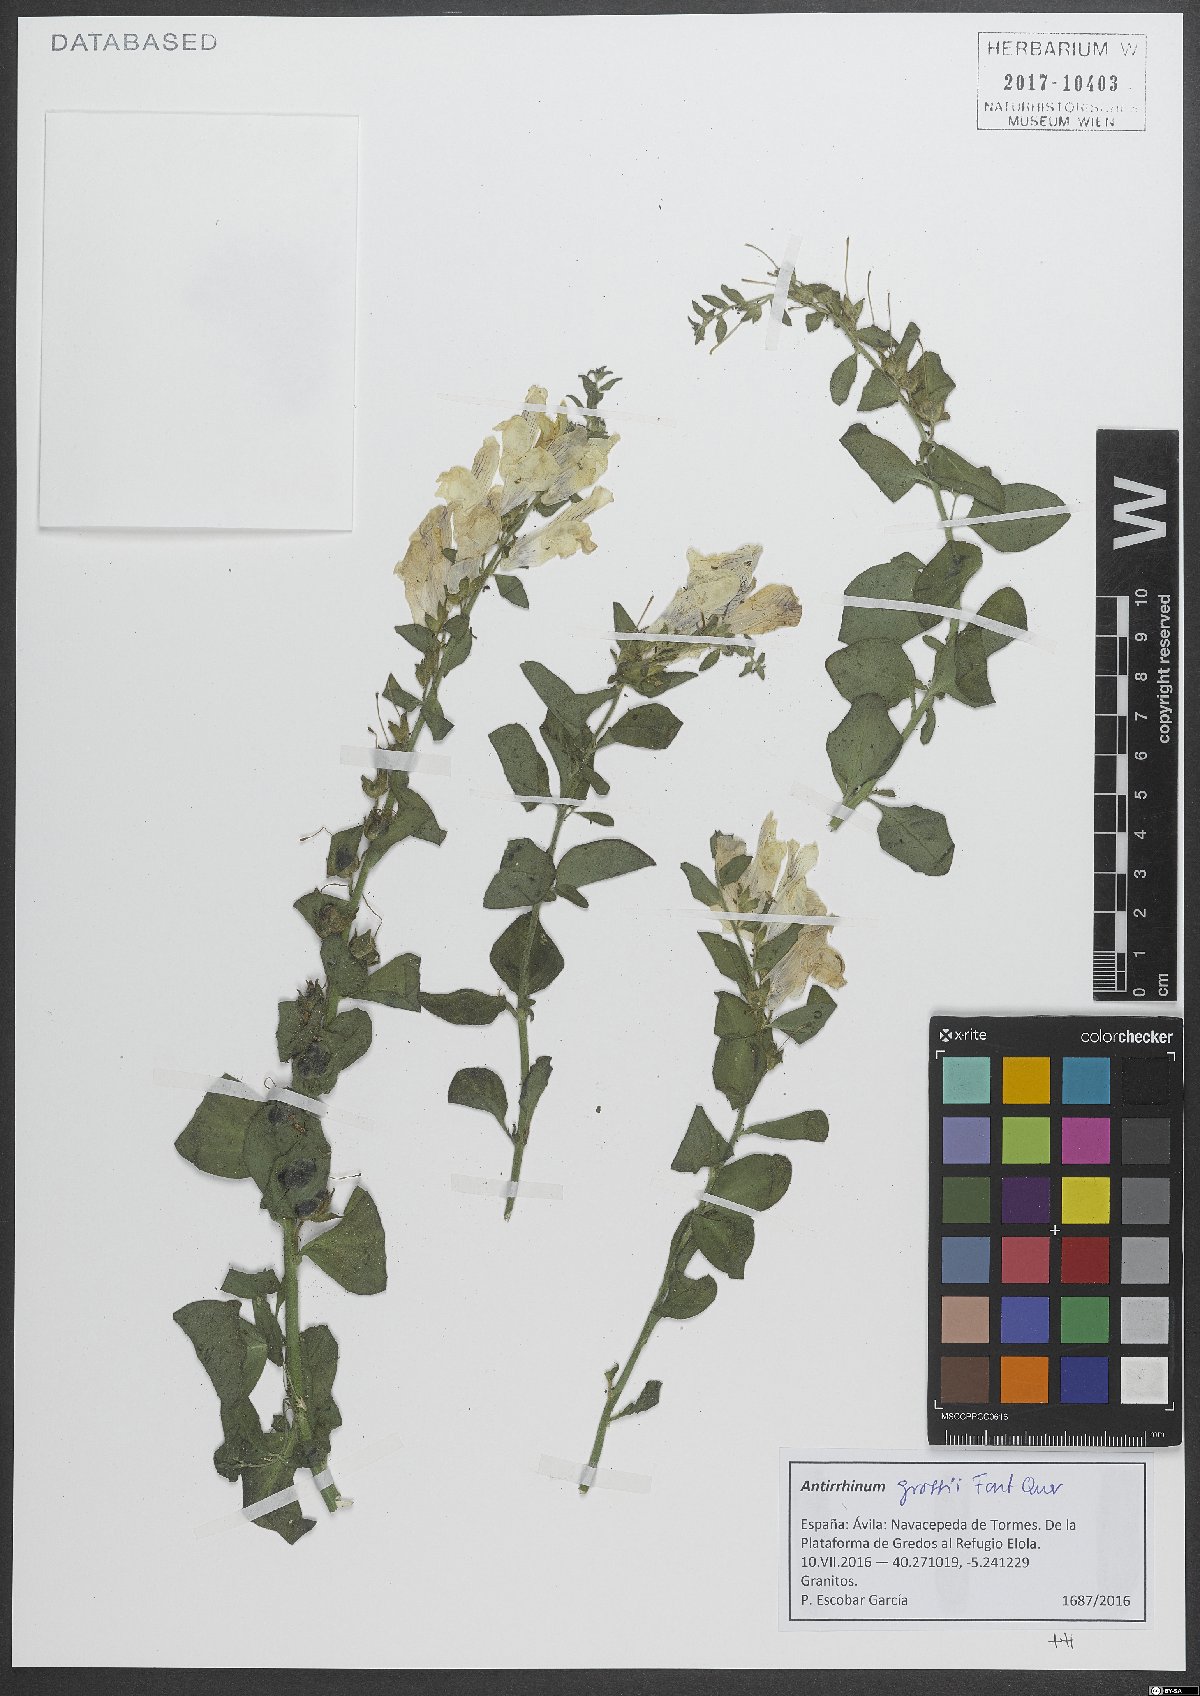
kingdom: Plantae
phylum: Tracheophyta
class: Magnoliopsida
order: Lamiales
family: Plantaginaceae
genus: Antirrhinum
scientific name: Antirrhinum grosii
